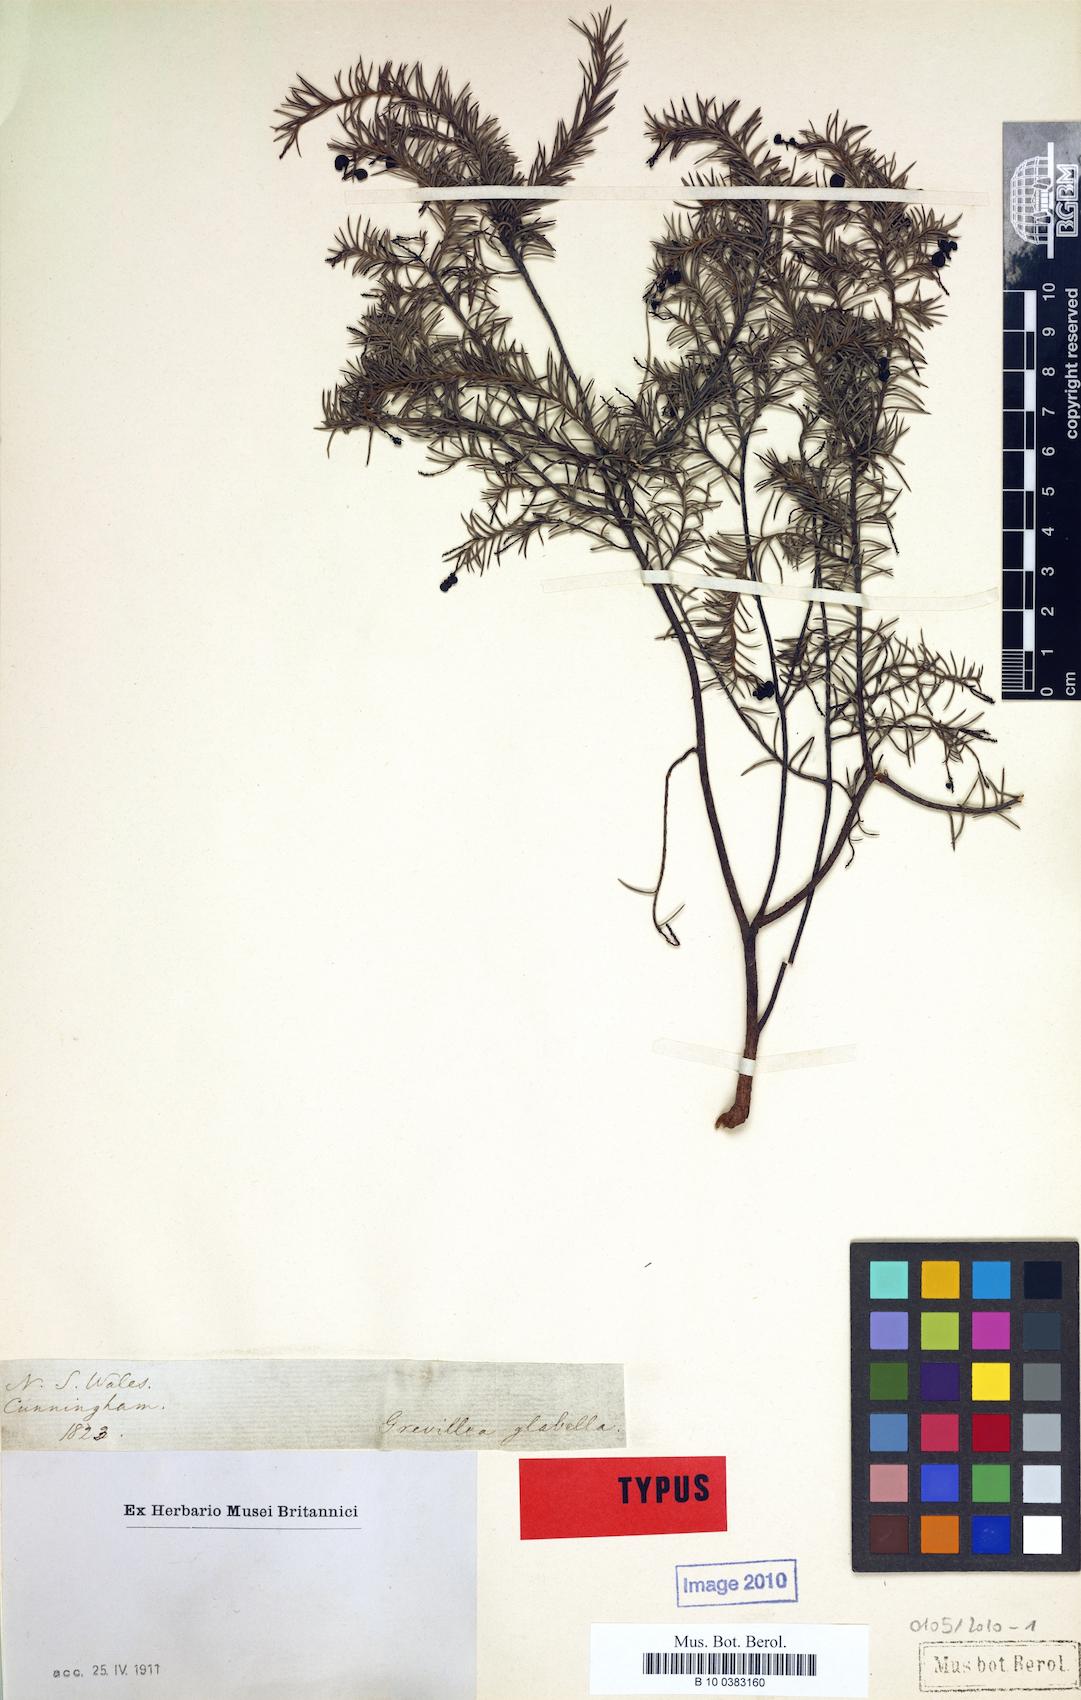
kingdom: Plantae
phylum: Tracheophyta
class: Magnoliopsida
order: Proteales
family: Proteaceae
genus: Grevillea
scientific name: Grevillea divaricata
